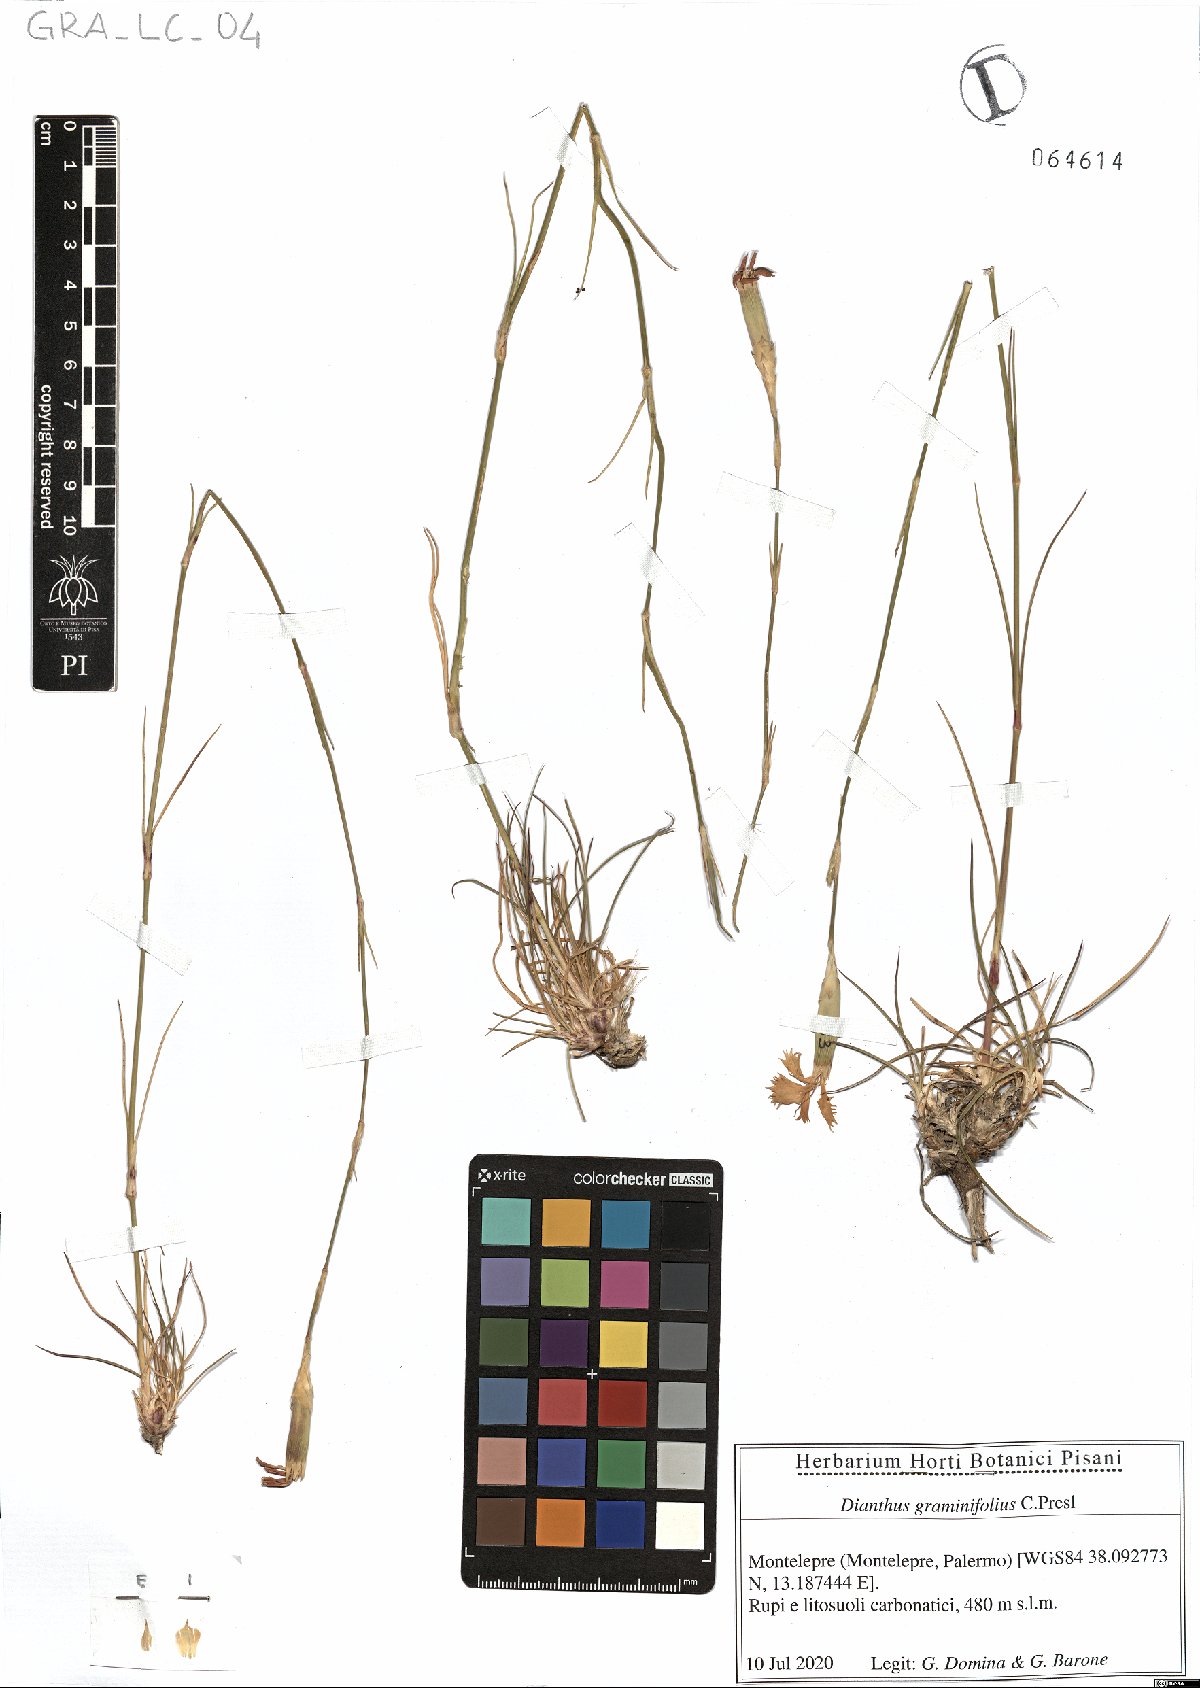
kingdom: Plantae
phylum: Tracheophyta
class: Magnoliopsida
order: Caryophyllales
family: Caryophyllaceae
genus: Dianthus
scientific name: Dianthus graminifolius
